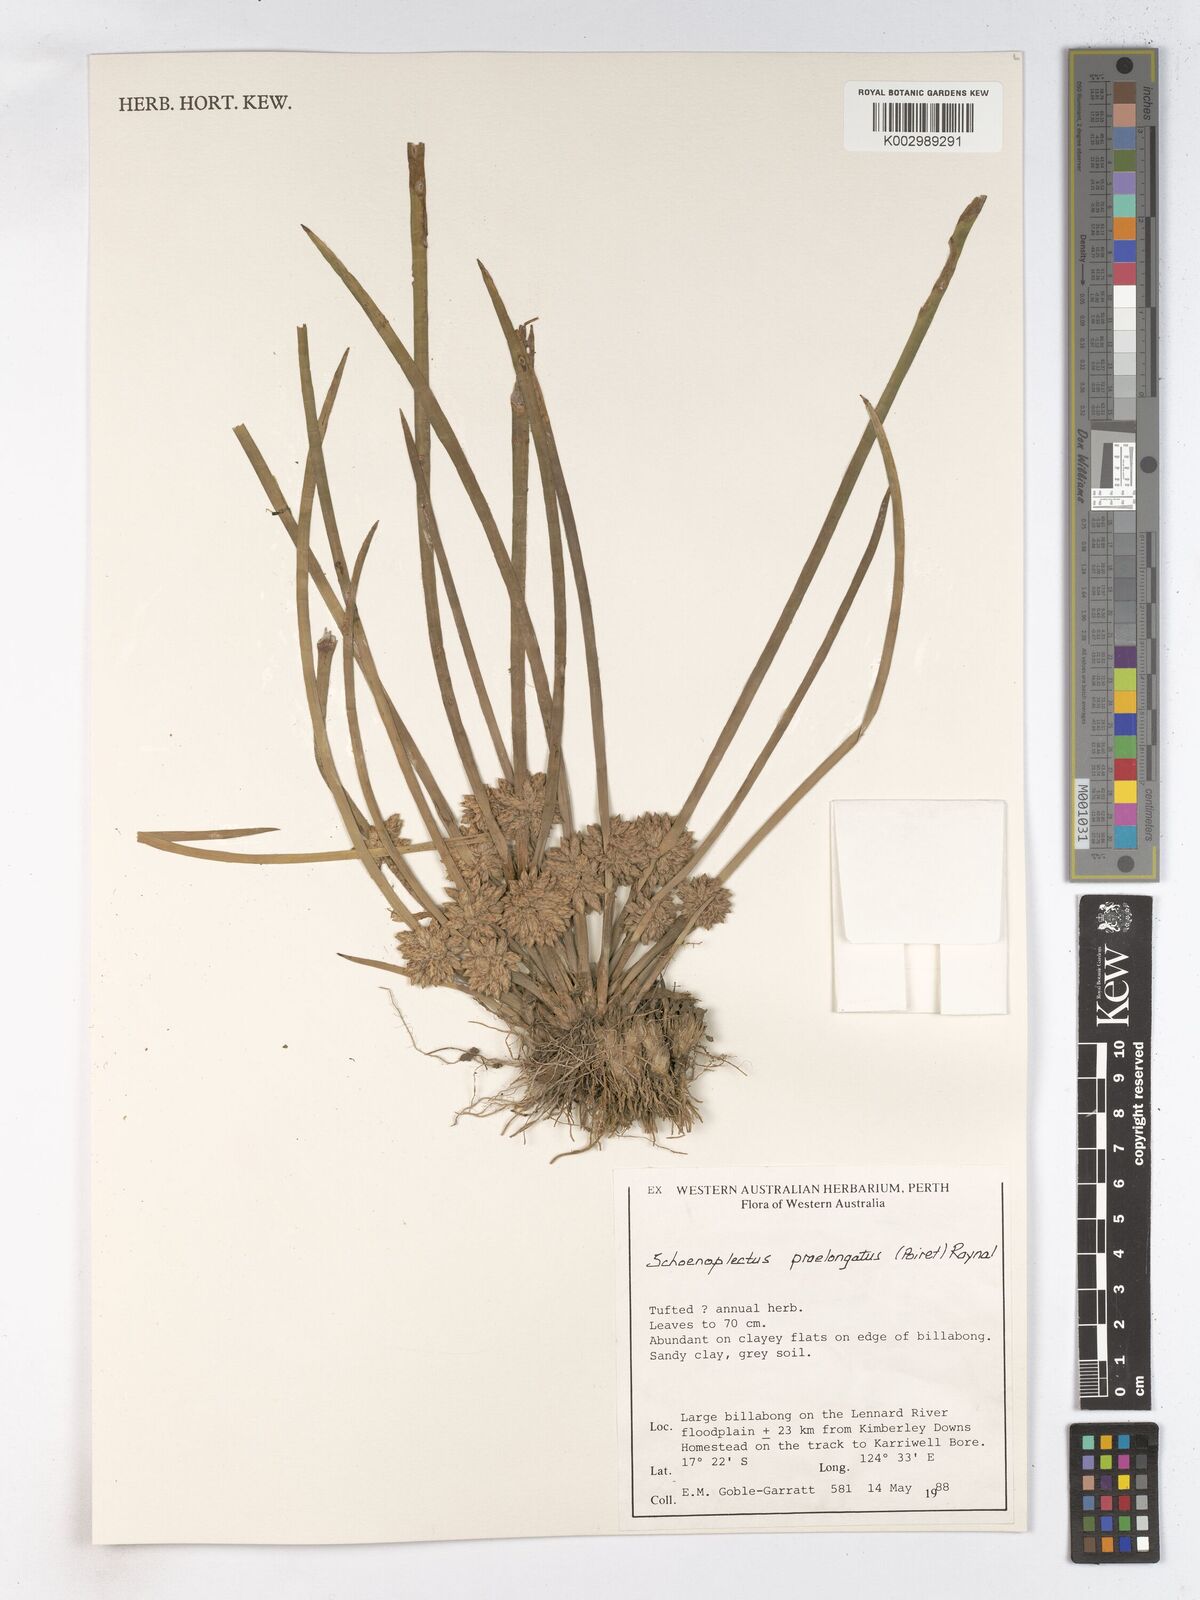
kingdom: Plantae
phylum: Tracheophyta
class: Liliopsida
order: Poales
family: Cyperaceae
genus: Schoenoplectiella
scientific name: Schoenoplectiella praelongata
